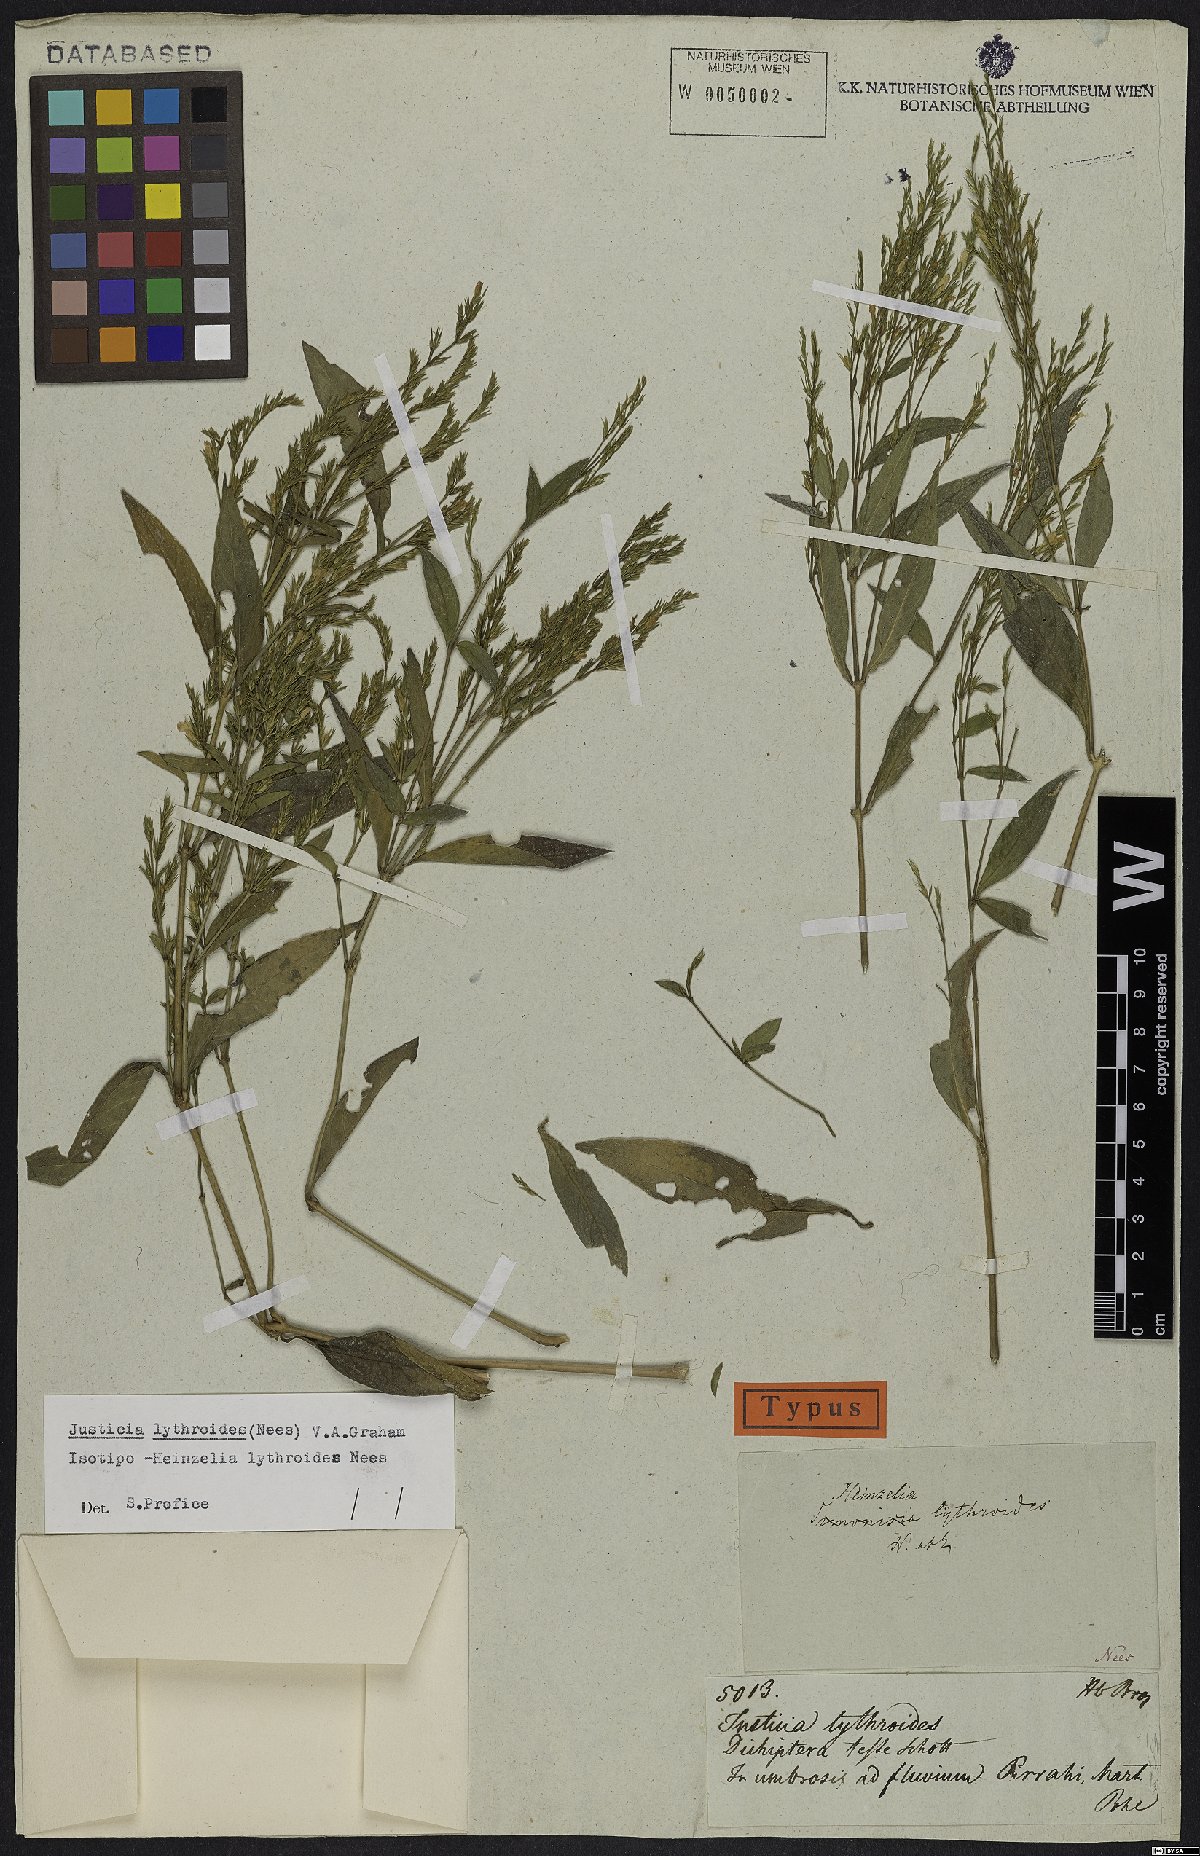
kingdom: Plantae
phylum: Tracheophyta
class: Magnoliopsida
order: Lamiales
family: Acanthaceae
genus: Justicia
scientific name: Justicia lythroides
